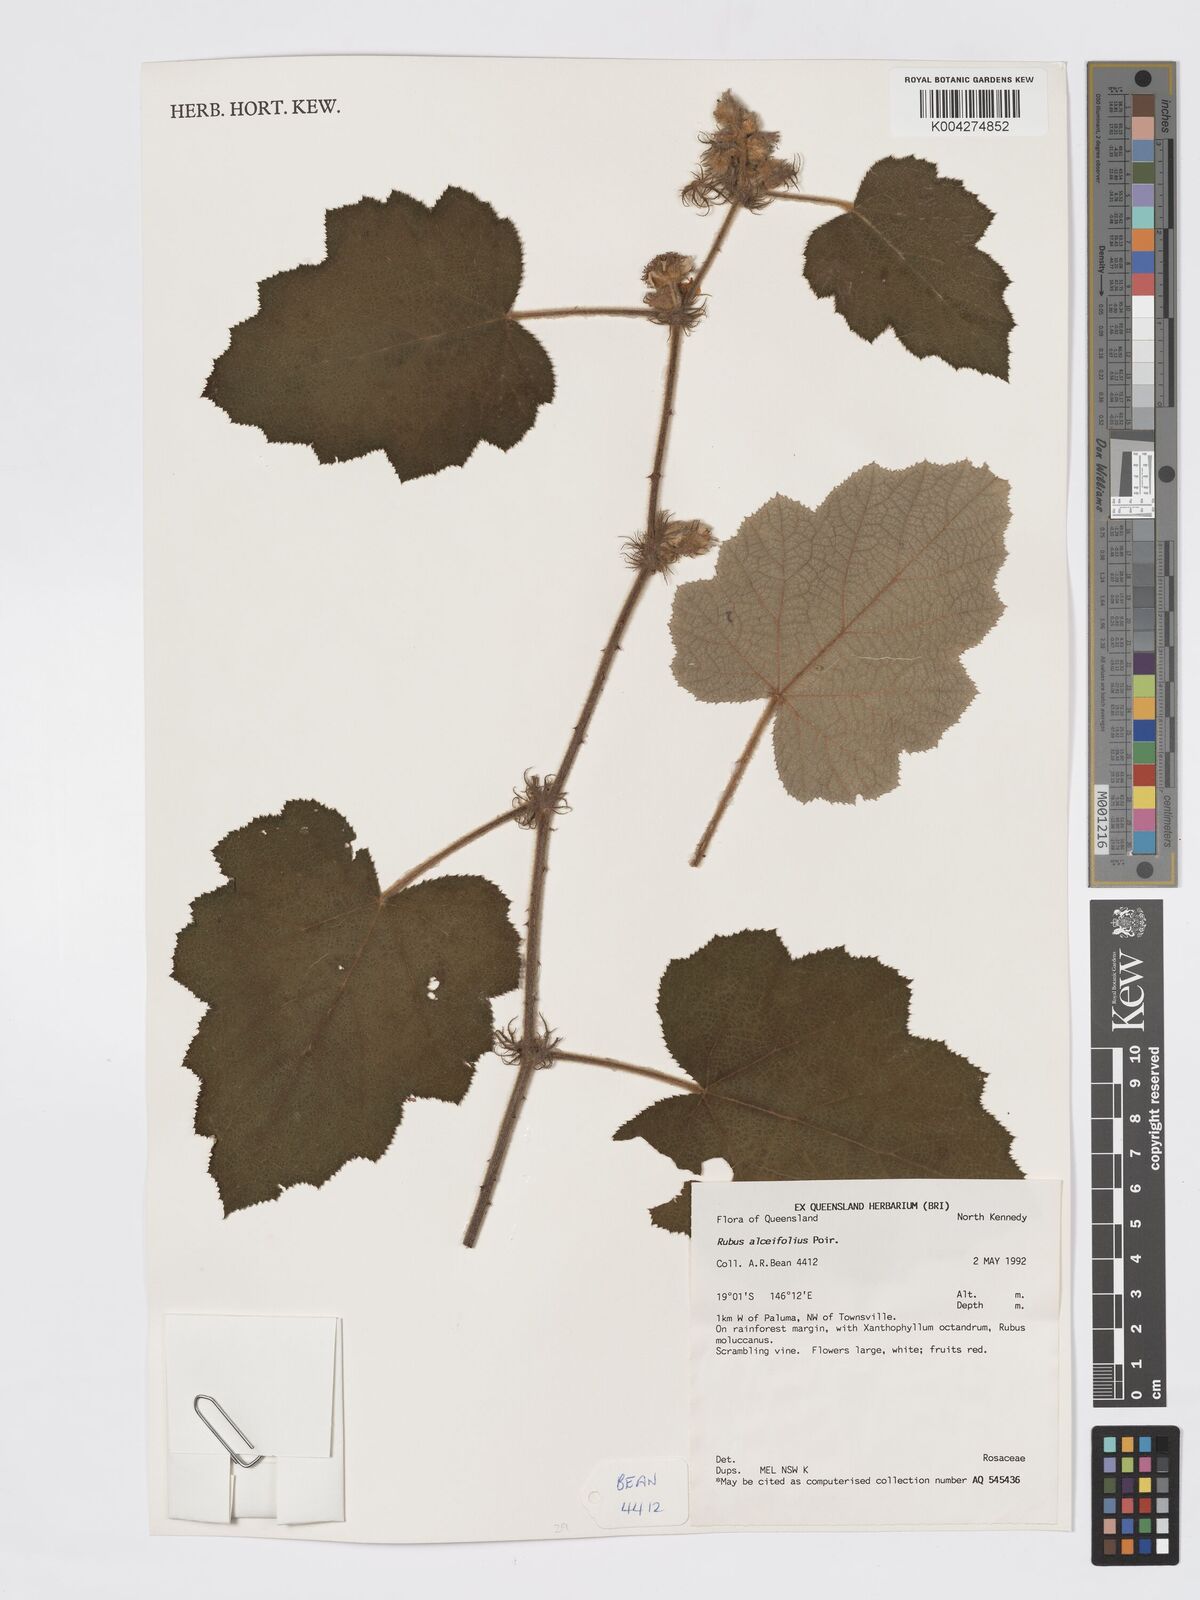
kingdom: Plantae
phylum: Tracheophyta
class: Magnoliopsida
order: Rosales
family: Rosaceae
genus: Rubus
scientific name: Rubus alceifolius
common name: Giant bramble
